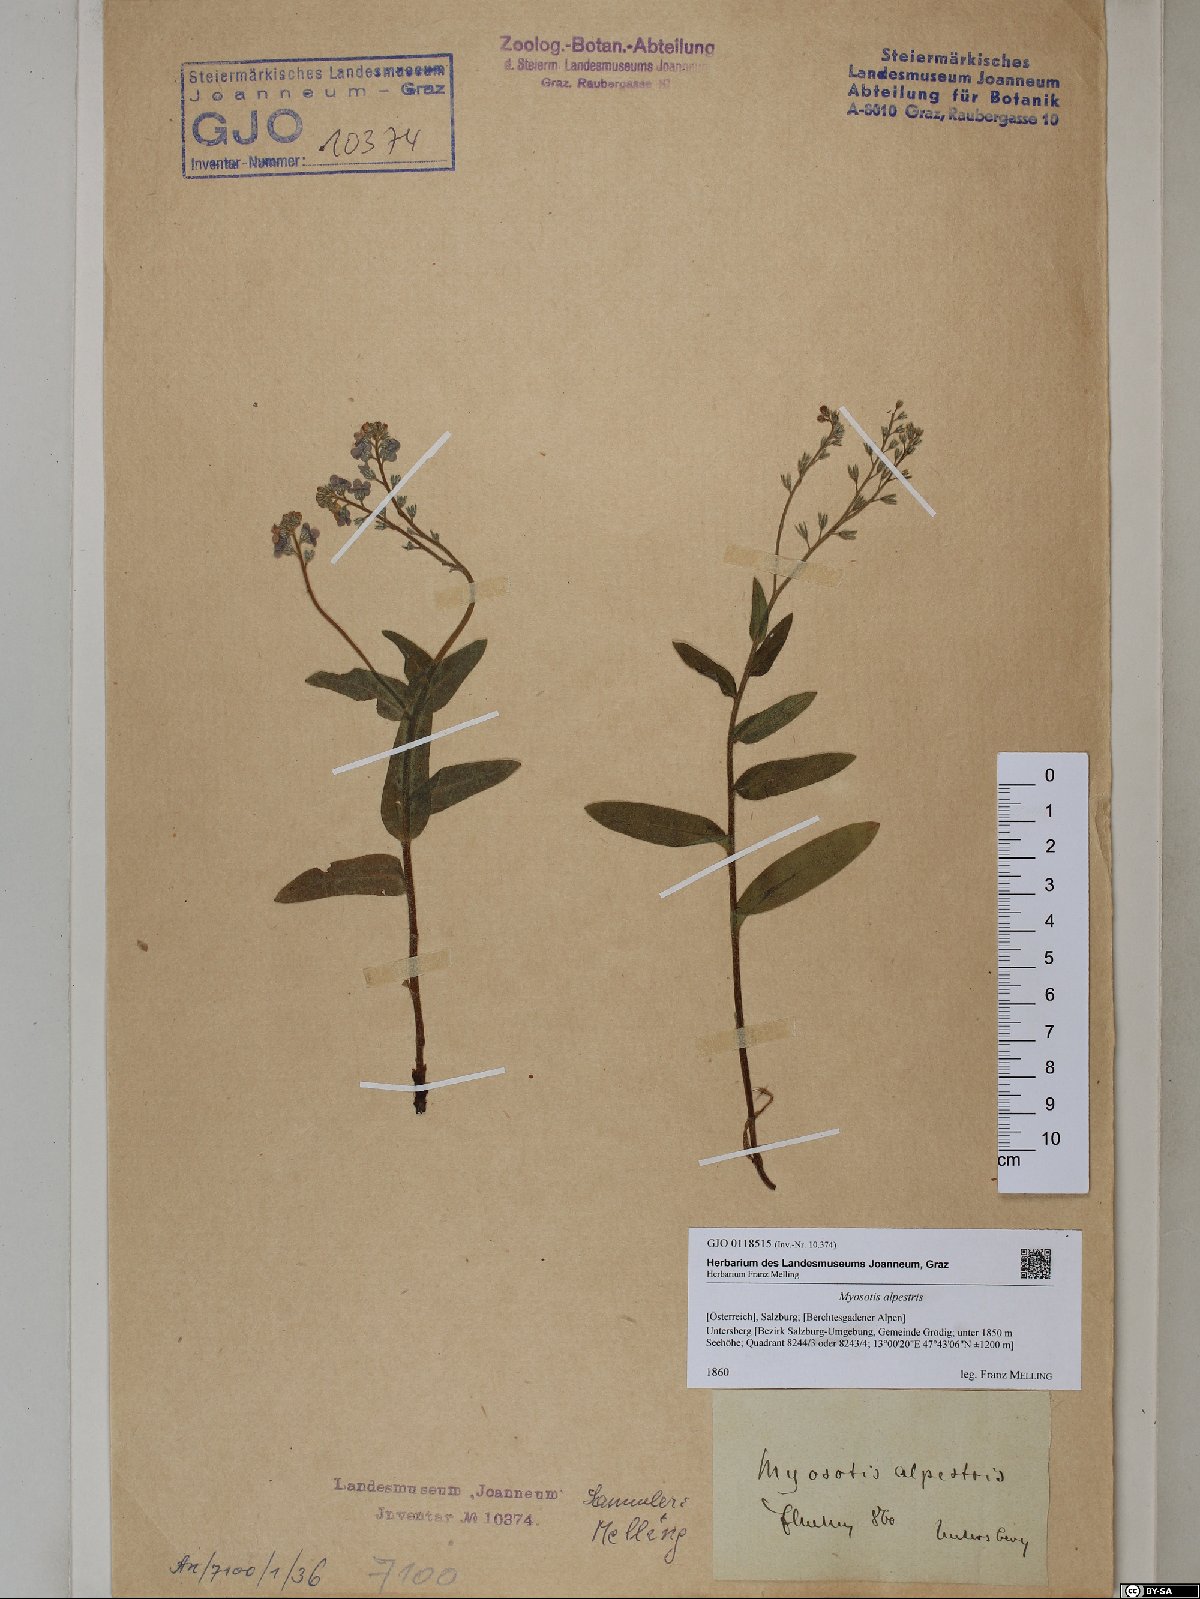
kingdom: Plantae
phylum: Tracheophyta
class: Magnoliopsida
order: Boraginales
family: Boraginaceae
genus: Myosotis
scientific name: Myosotis alpestris
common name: Alpine forget-me-not
